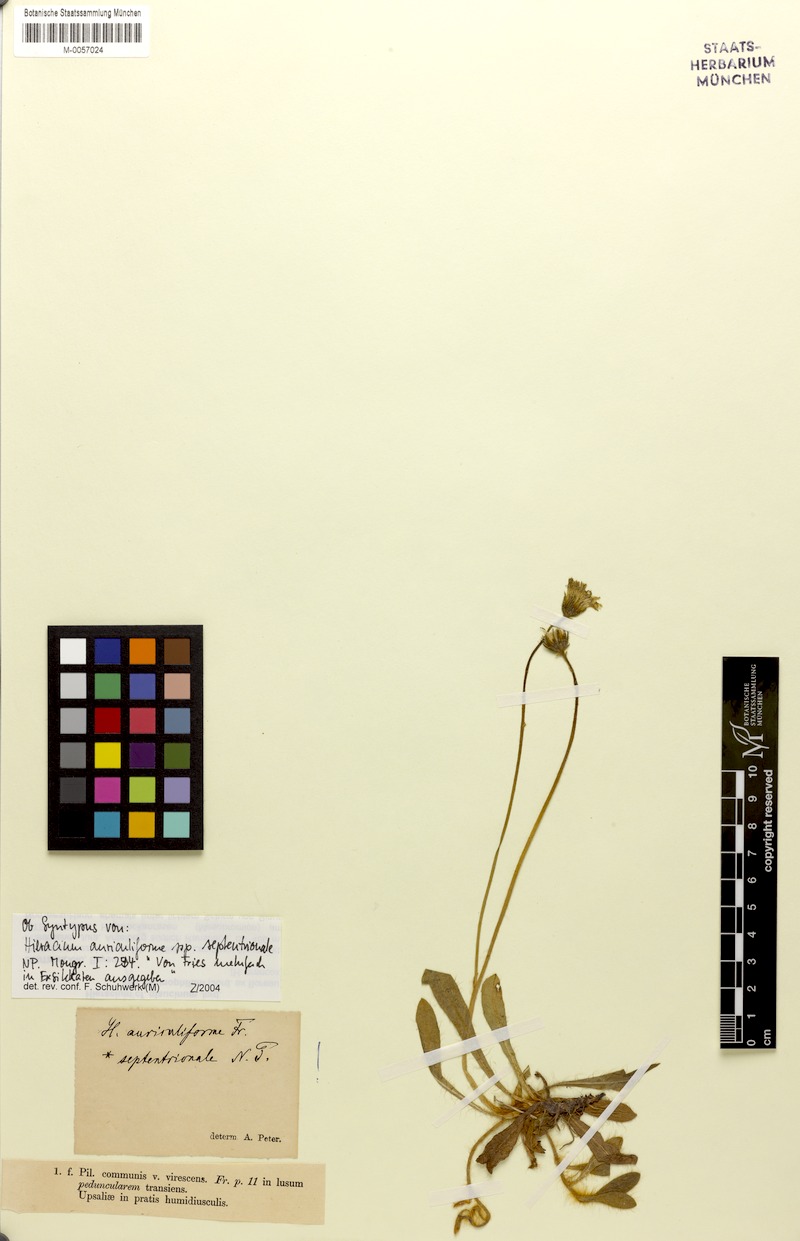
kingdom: Plantae
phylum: Tracheophyta
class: Magnoliopsida
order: Asterales
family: Asteraceae
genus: Hieracium
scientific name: Hieracium auriculiforme
